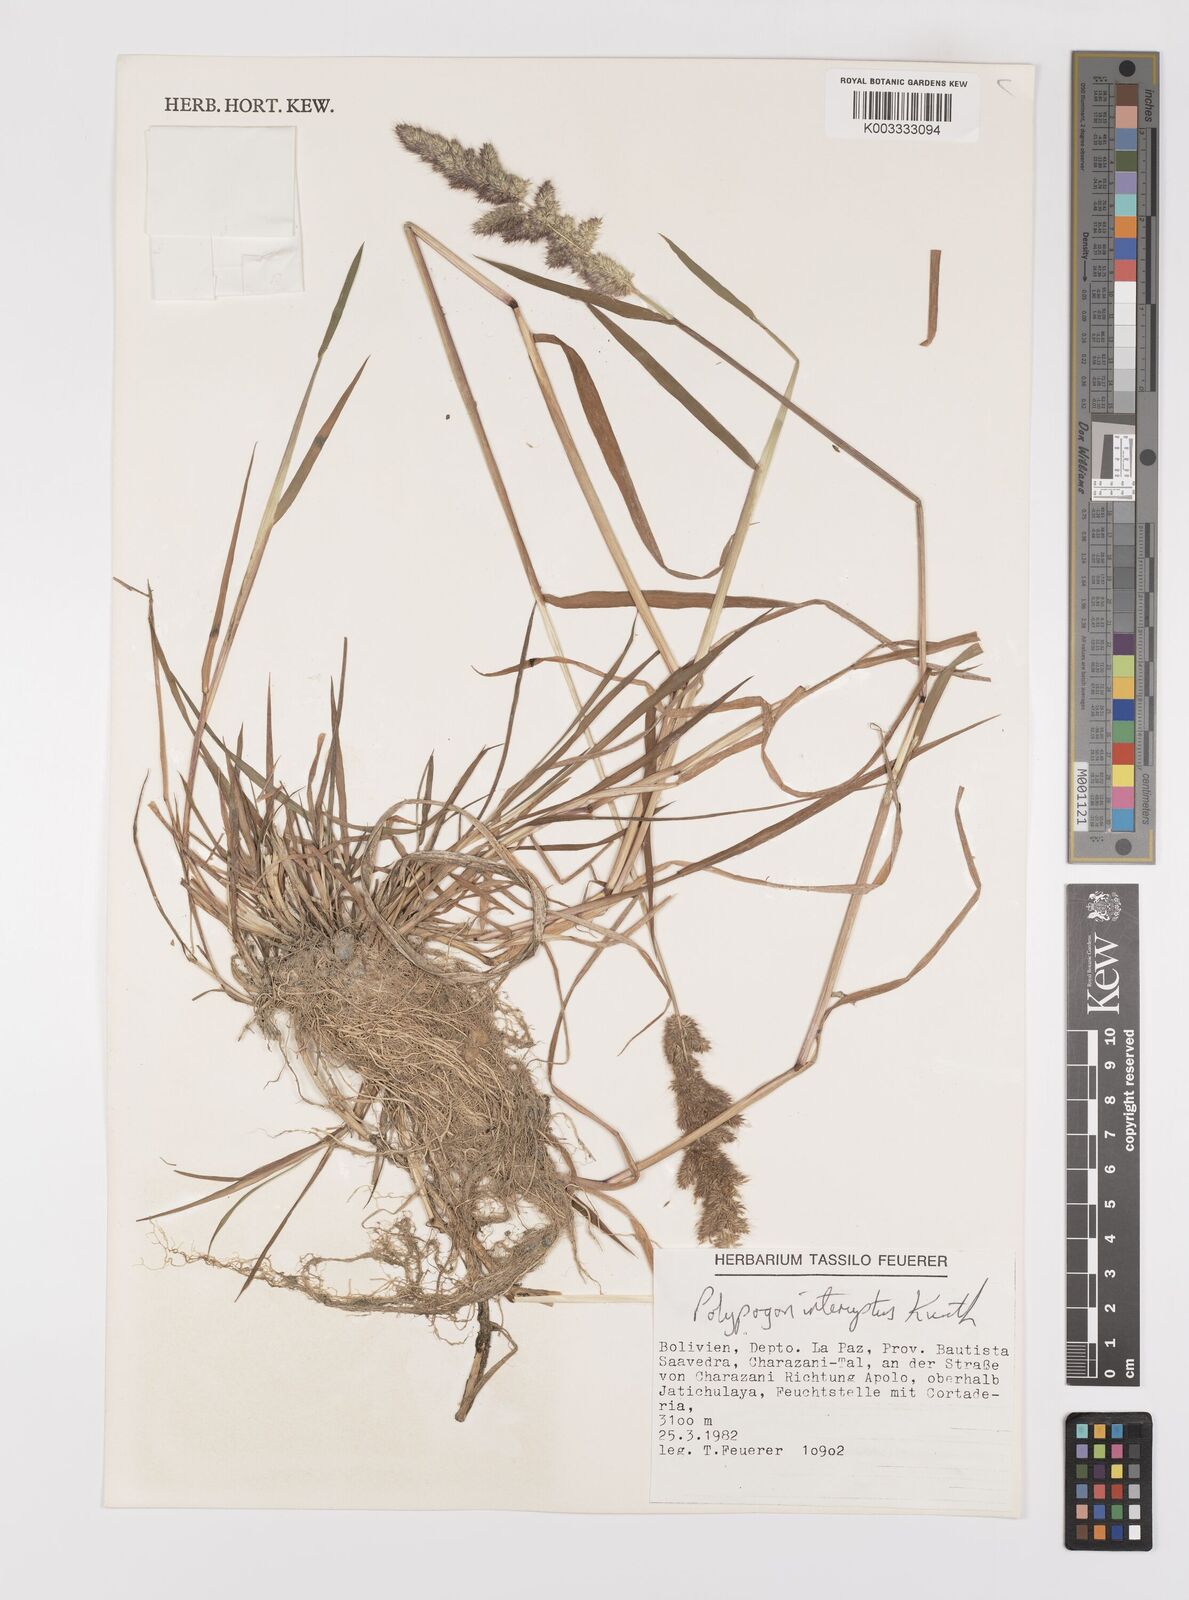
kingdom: Plantae
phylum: Tracheophyta
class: Liliopsida
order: Poales
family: Poaceae
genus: Polypogon
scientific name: Polypogon interruptus
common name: Ditch polypogon
